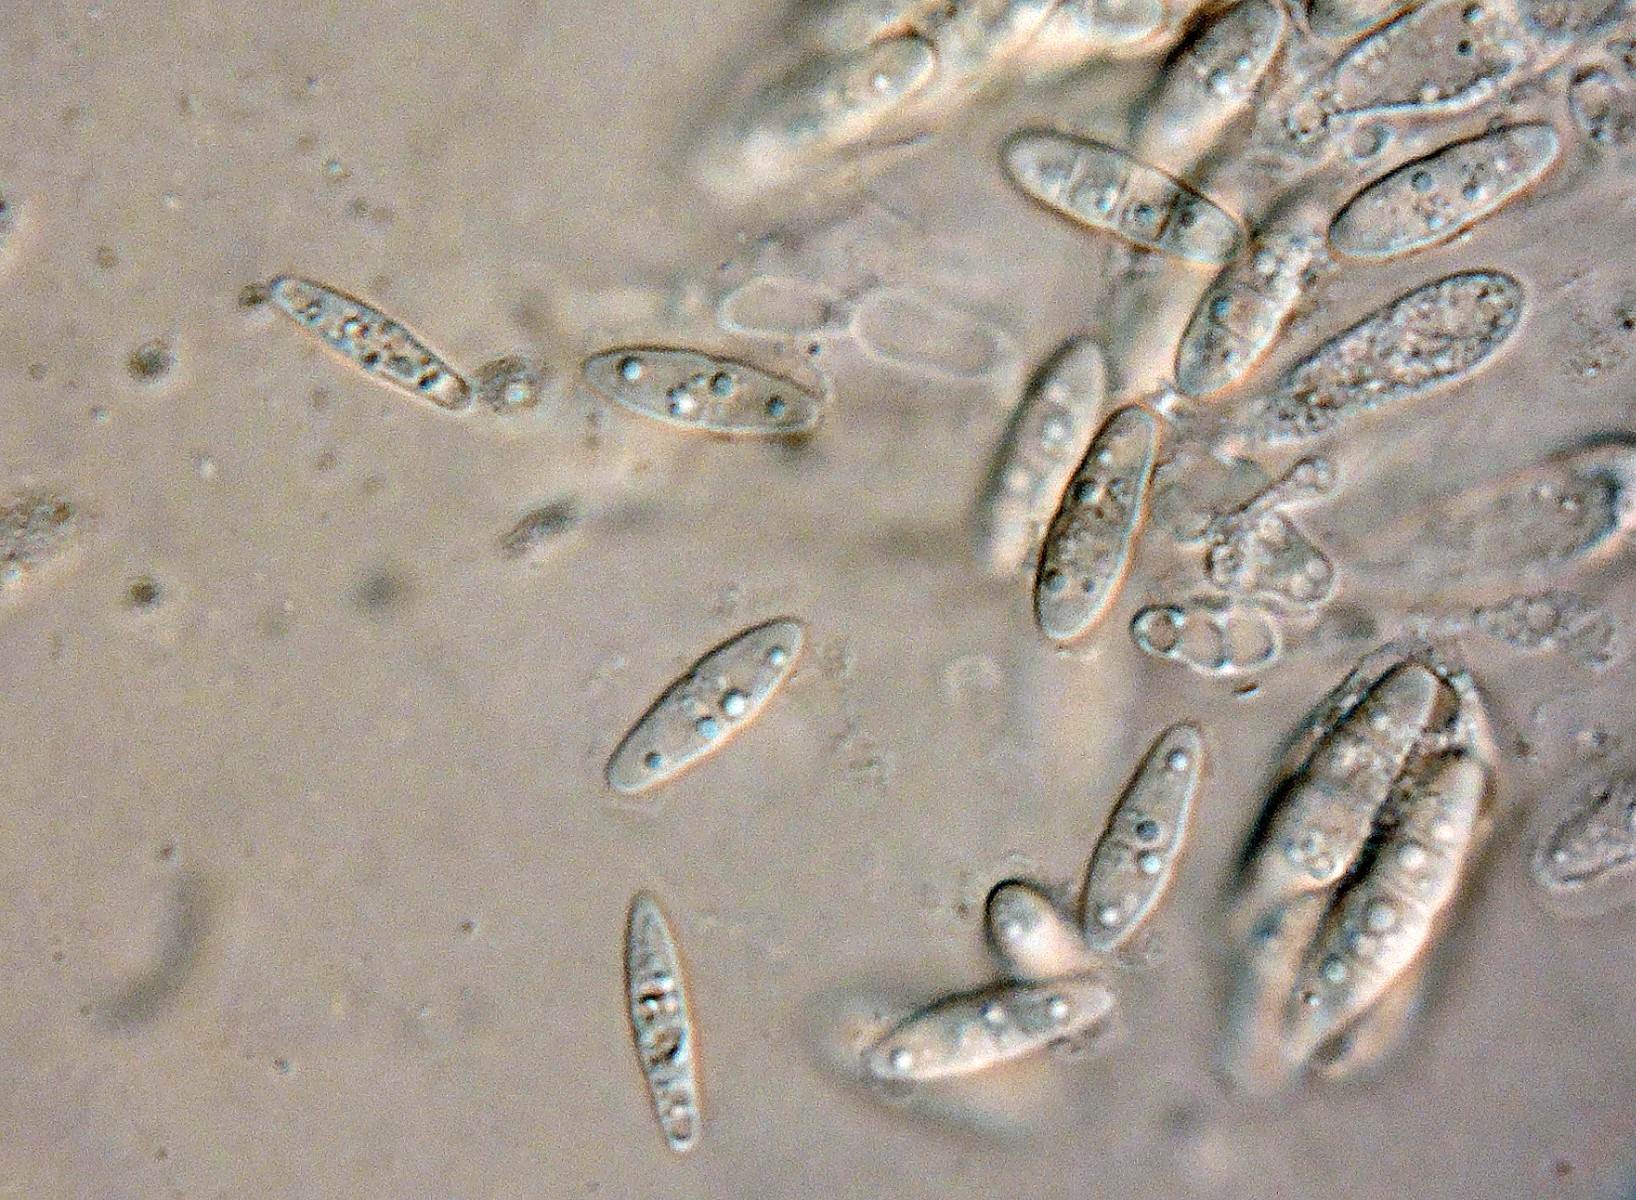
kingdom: Plantae
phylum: Bryophyta
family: Dothideomycetes
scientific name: Dothideomycetes
